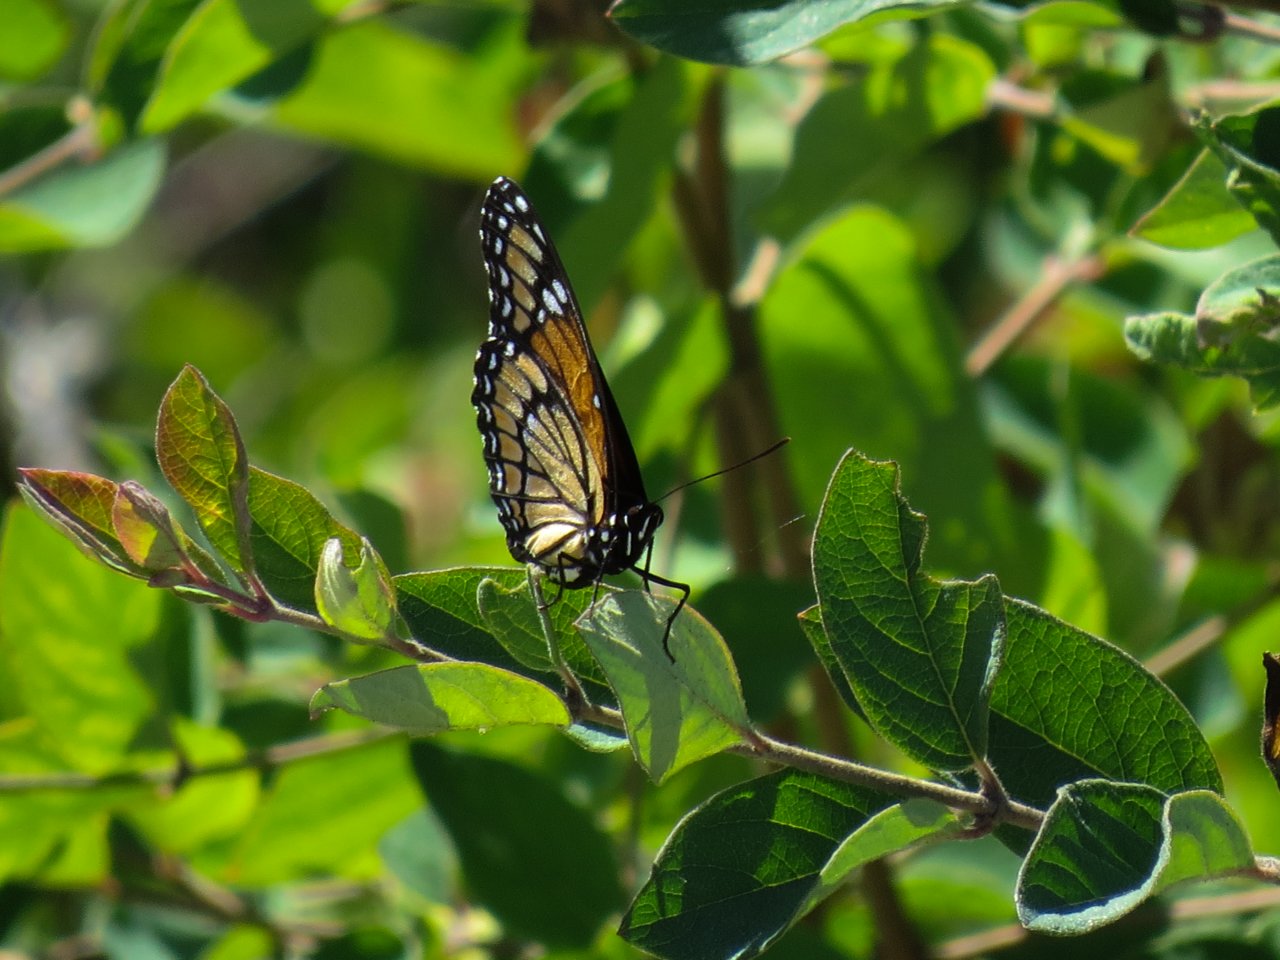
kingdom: Animalia
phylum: Arthropoda
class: Insecta
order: Lepidoptera
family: Nymphalidae
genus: Limenitis
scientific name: Limenitis archippus
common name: Viceroy
